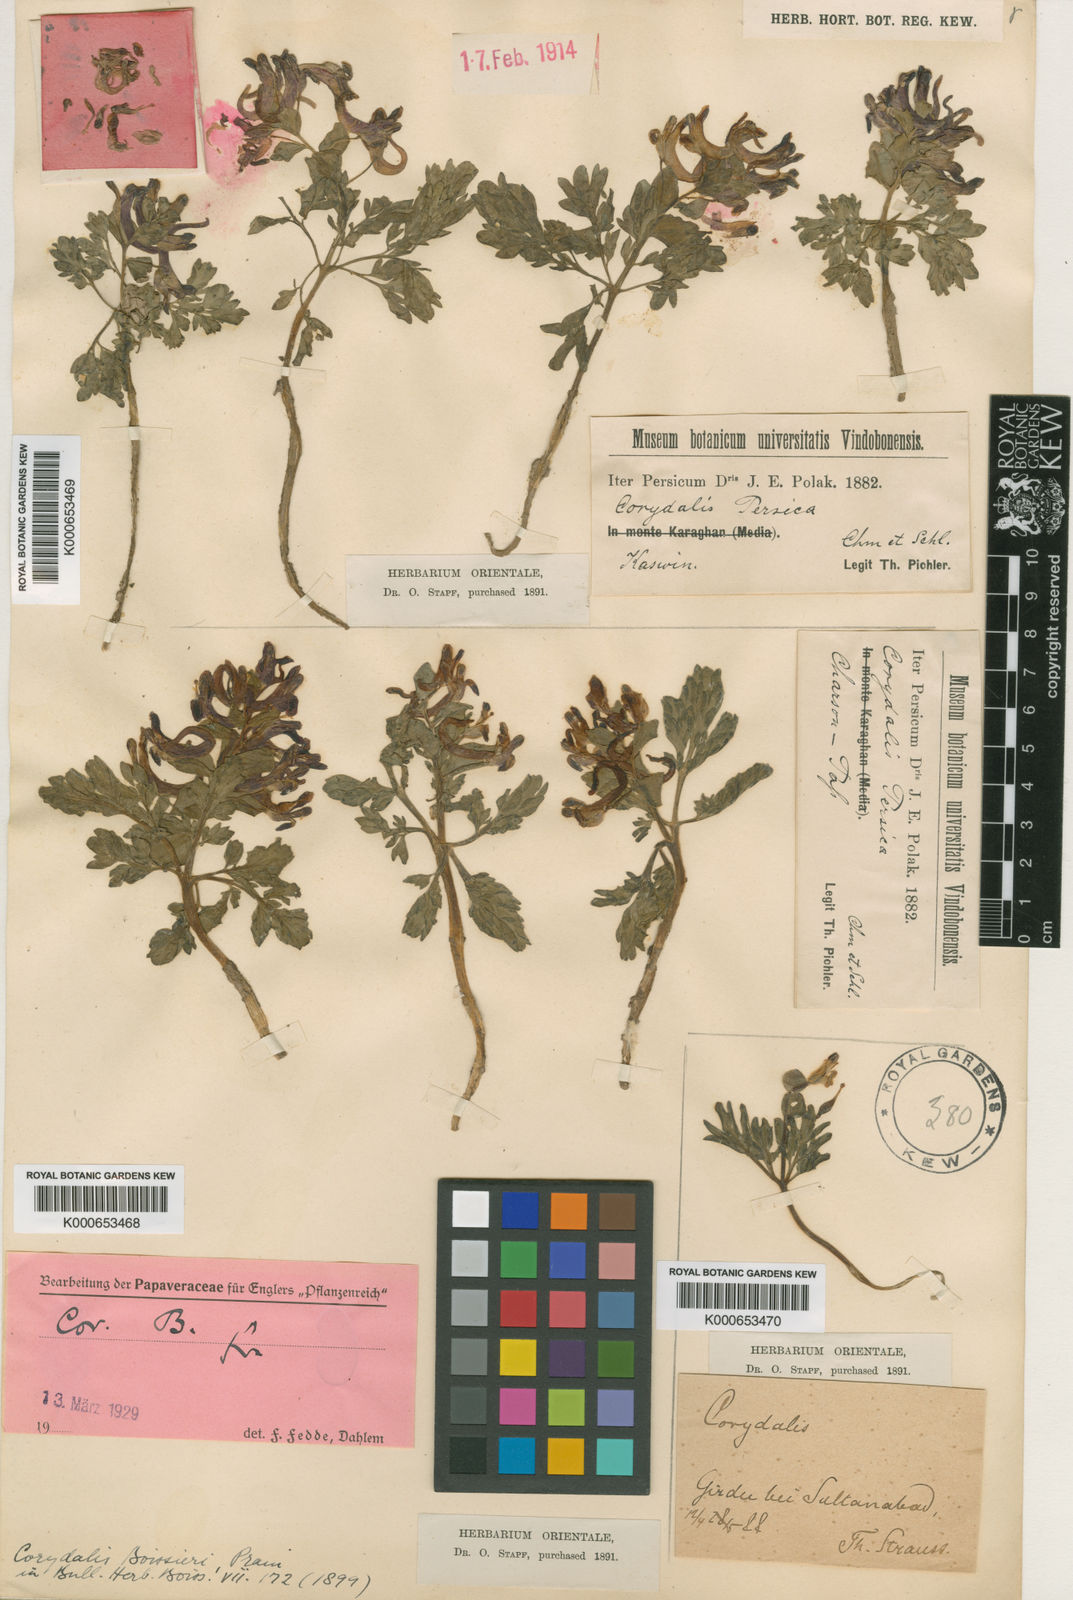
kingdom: Plantae
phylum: Tracheophyta
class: Magnoliopsida
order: Ranunculales
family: Papaveraceae
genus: Corydalis
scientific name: Corydalis verticillaris
